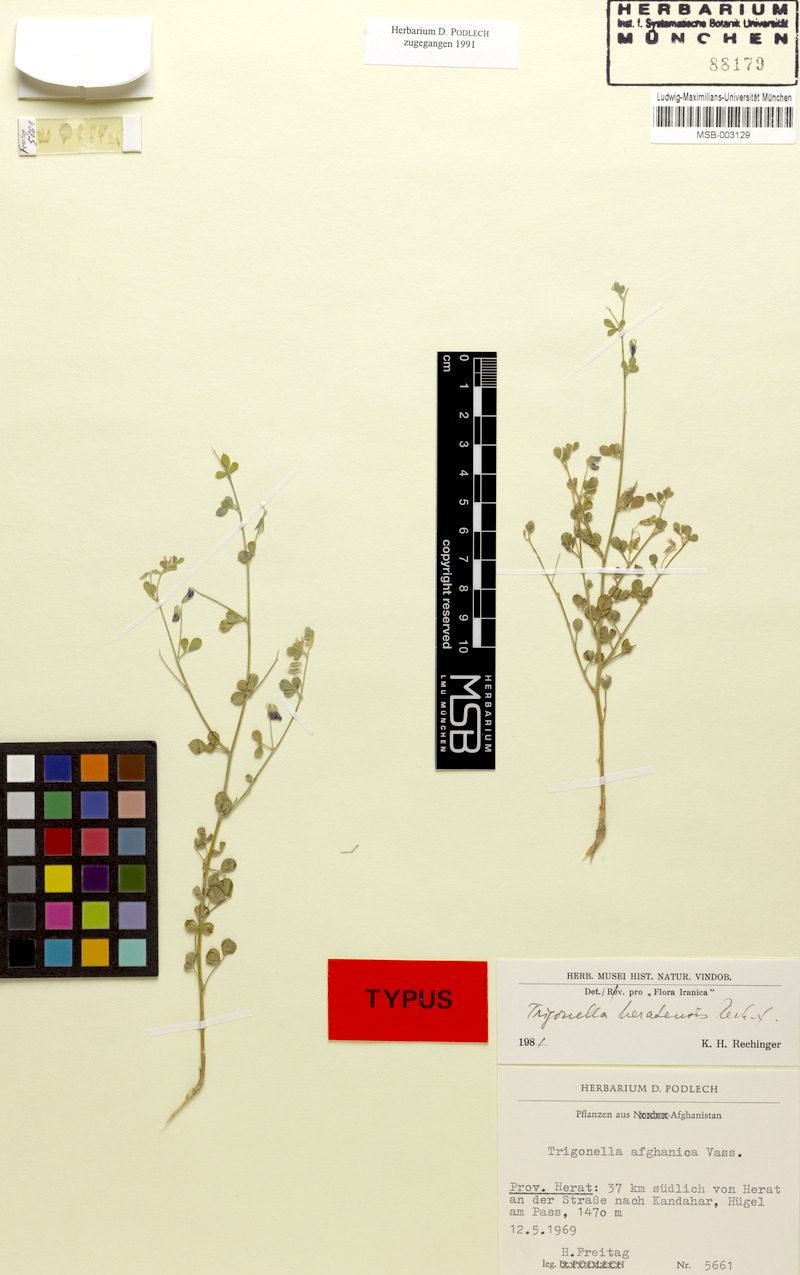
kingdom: Plantae
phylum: Tracheophyta
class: Magnoliopsida
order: Fabales
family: Fabaceae
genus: Trigonella
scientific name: Trigonella heratensis
